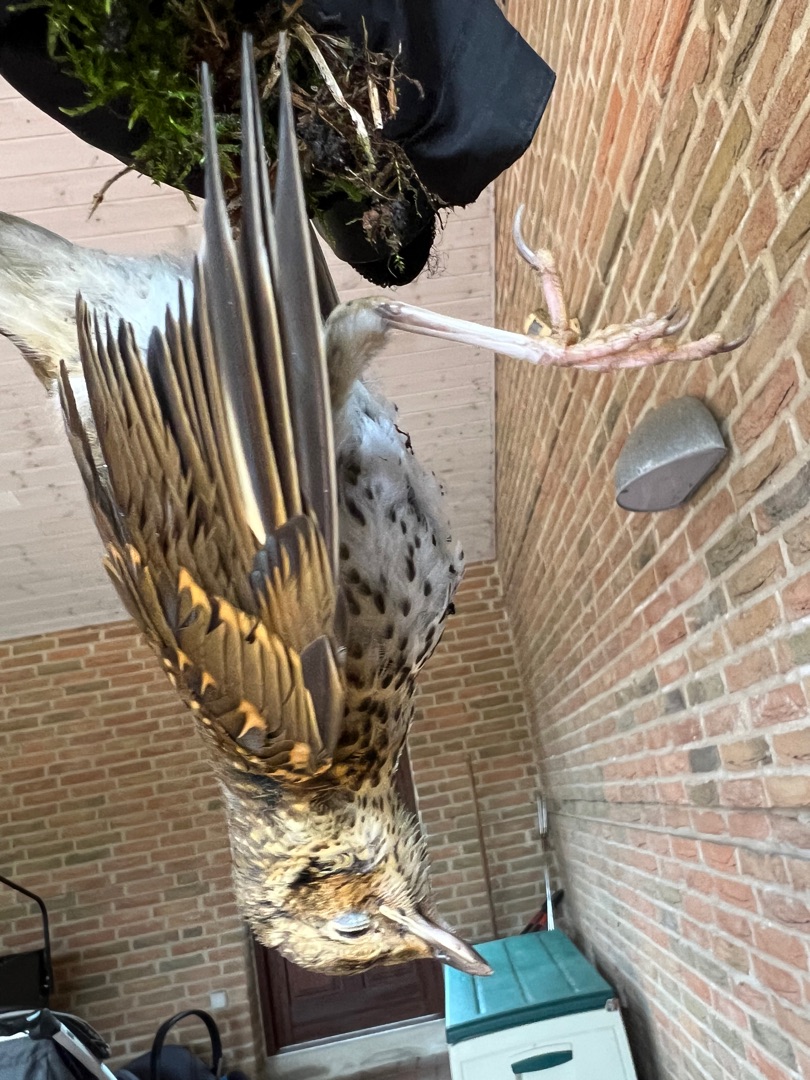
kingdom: Animalia
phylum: Chordata
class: Aves
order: Passeriformes
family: Turdidae
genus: Turdus
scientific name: Turdus philomelos
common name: Sangdrossel
